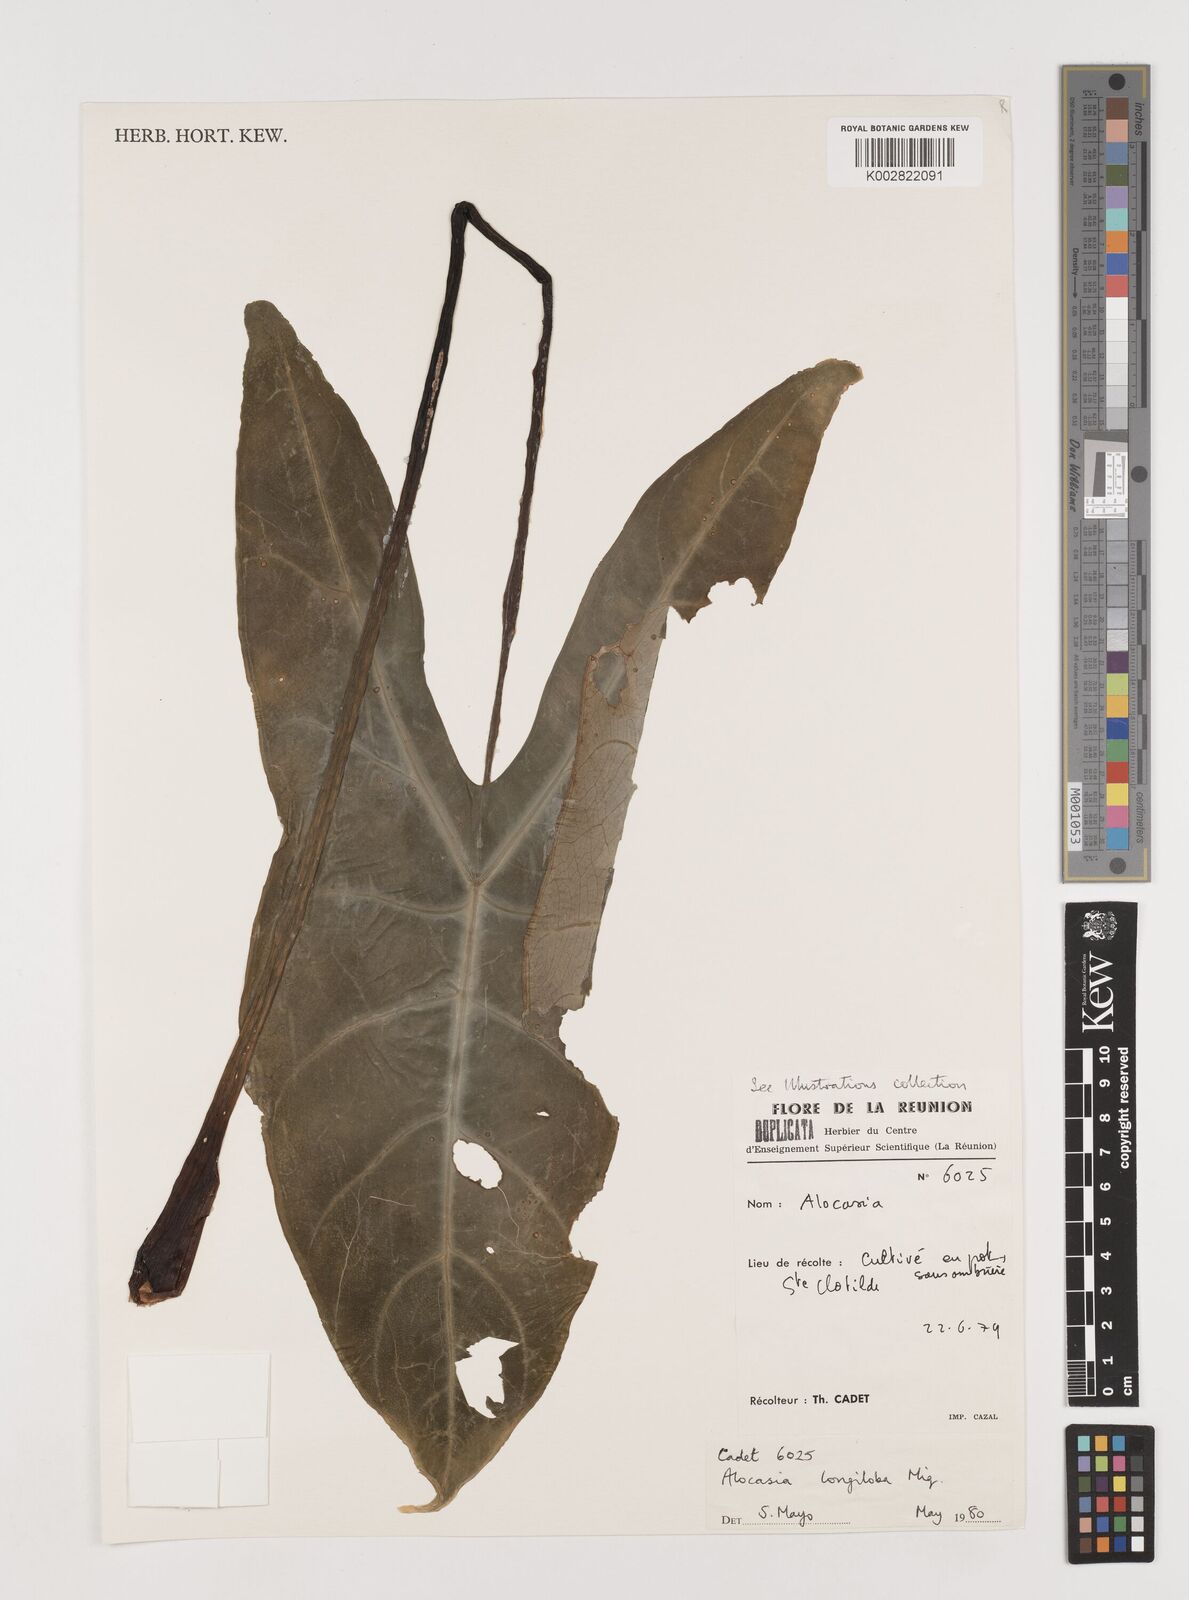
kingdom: Plantae
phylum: Tracheophyta
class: Liliopsida
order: Alismatales
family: Araceae
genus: Alocasia
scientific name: Alocasia longiloba
